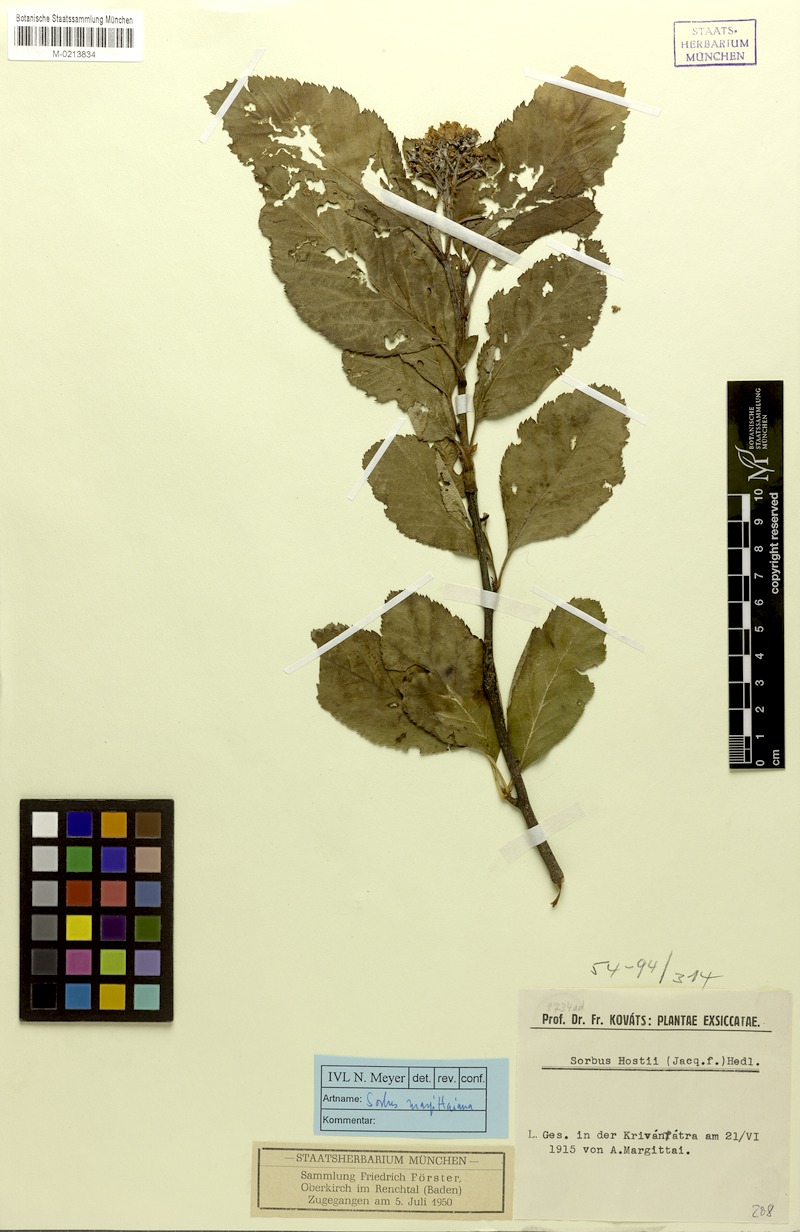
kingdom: Plantae
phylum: Tracheophyta
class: Magnoliopsida
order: Rosales
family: Rosaceae
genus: Normeyera
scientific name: Normeyera margittaiana
